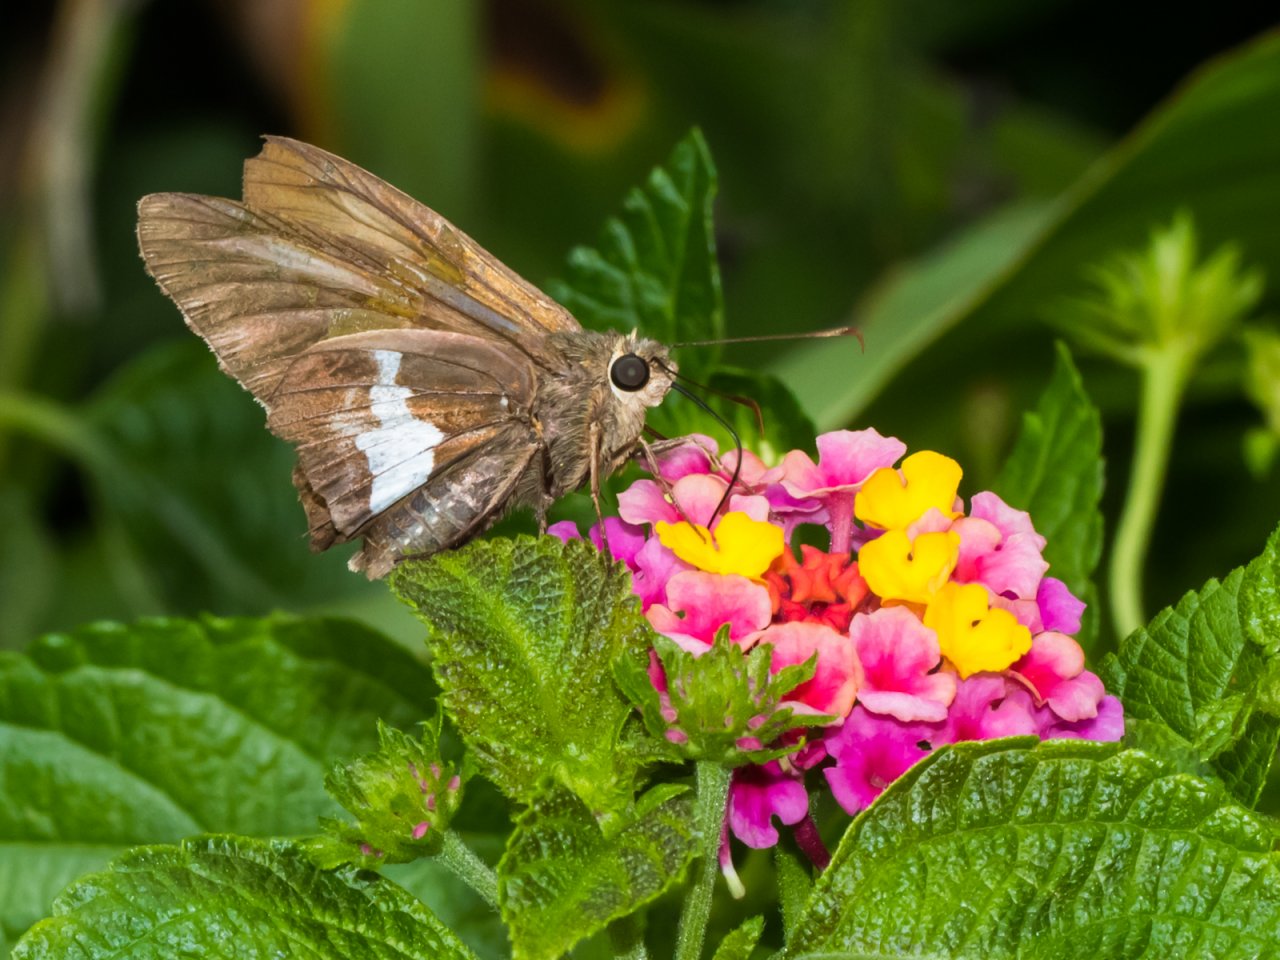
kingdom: Animalia
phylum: Arthropoda
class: Insecta
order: Lepidoptera
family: Hesperiidae
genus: Epargyreus
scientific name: Epargyreus clarus
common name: Silver-spotted Skipper
